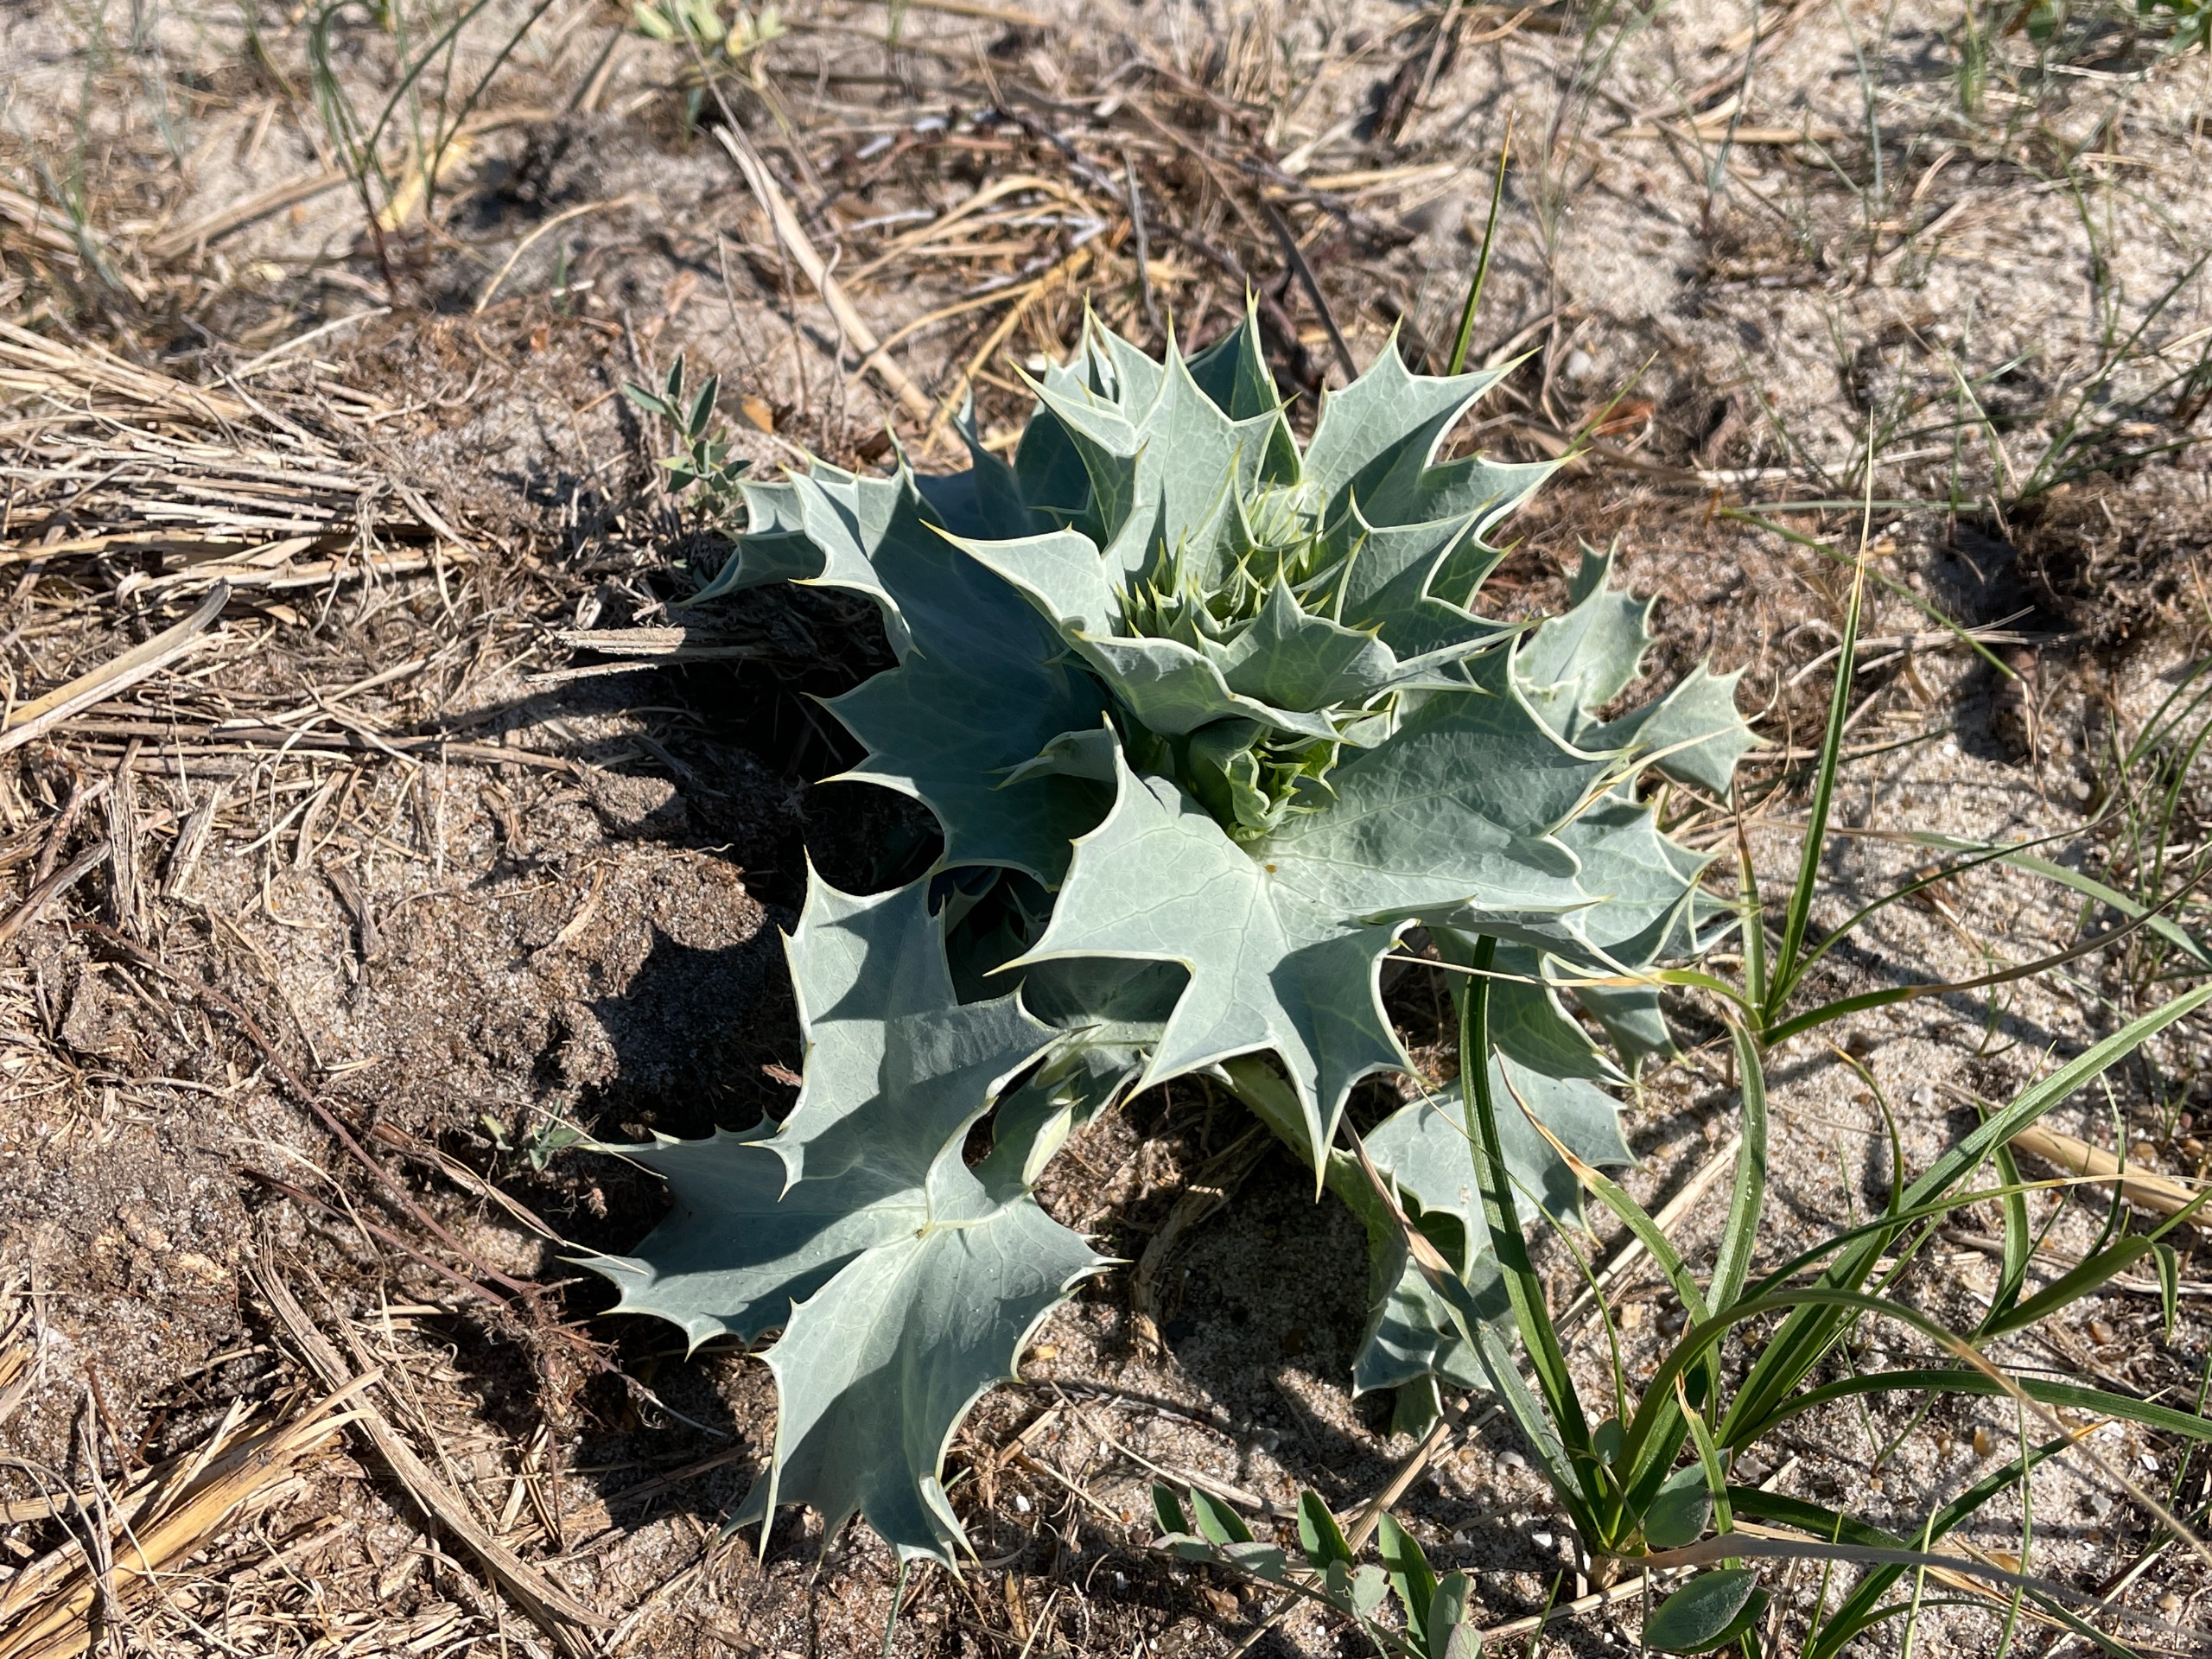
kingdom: Plantae
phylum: Tracheophyta
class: Magnoliopsida
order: Apiales
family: Apiaceae
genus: Eryngium
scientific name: Eryngium maritimum
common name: Strand-mandstro
